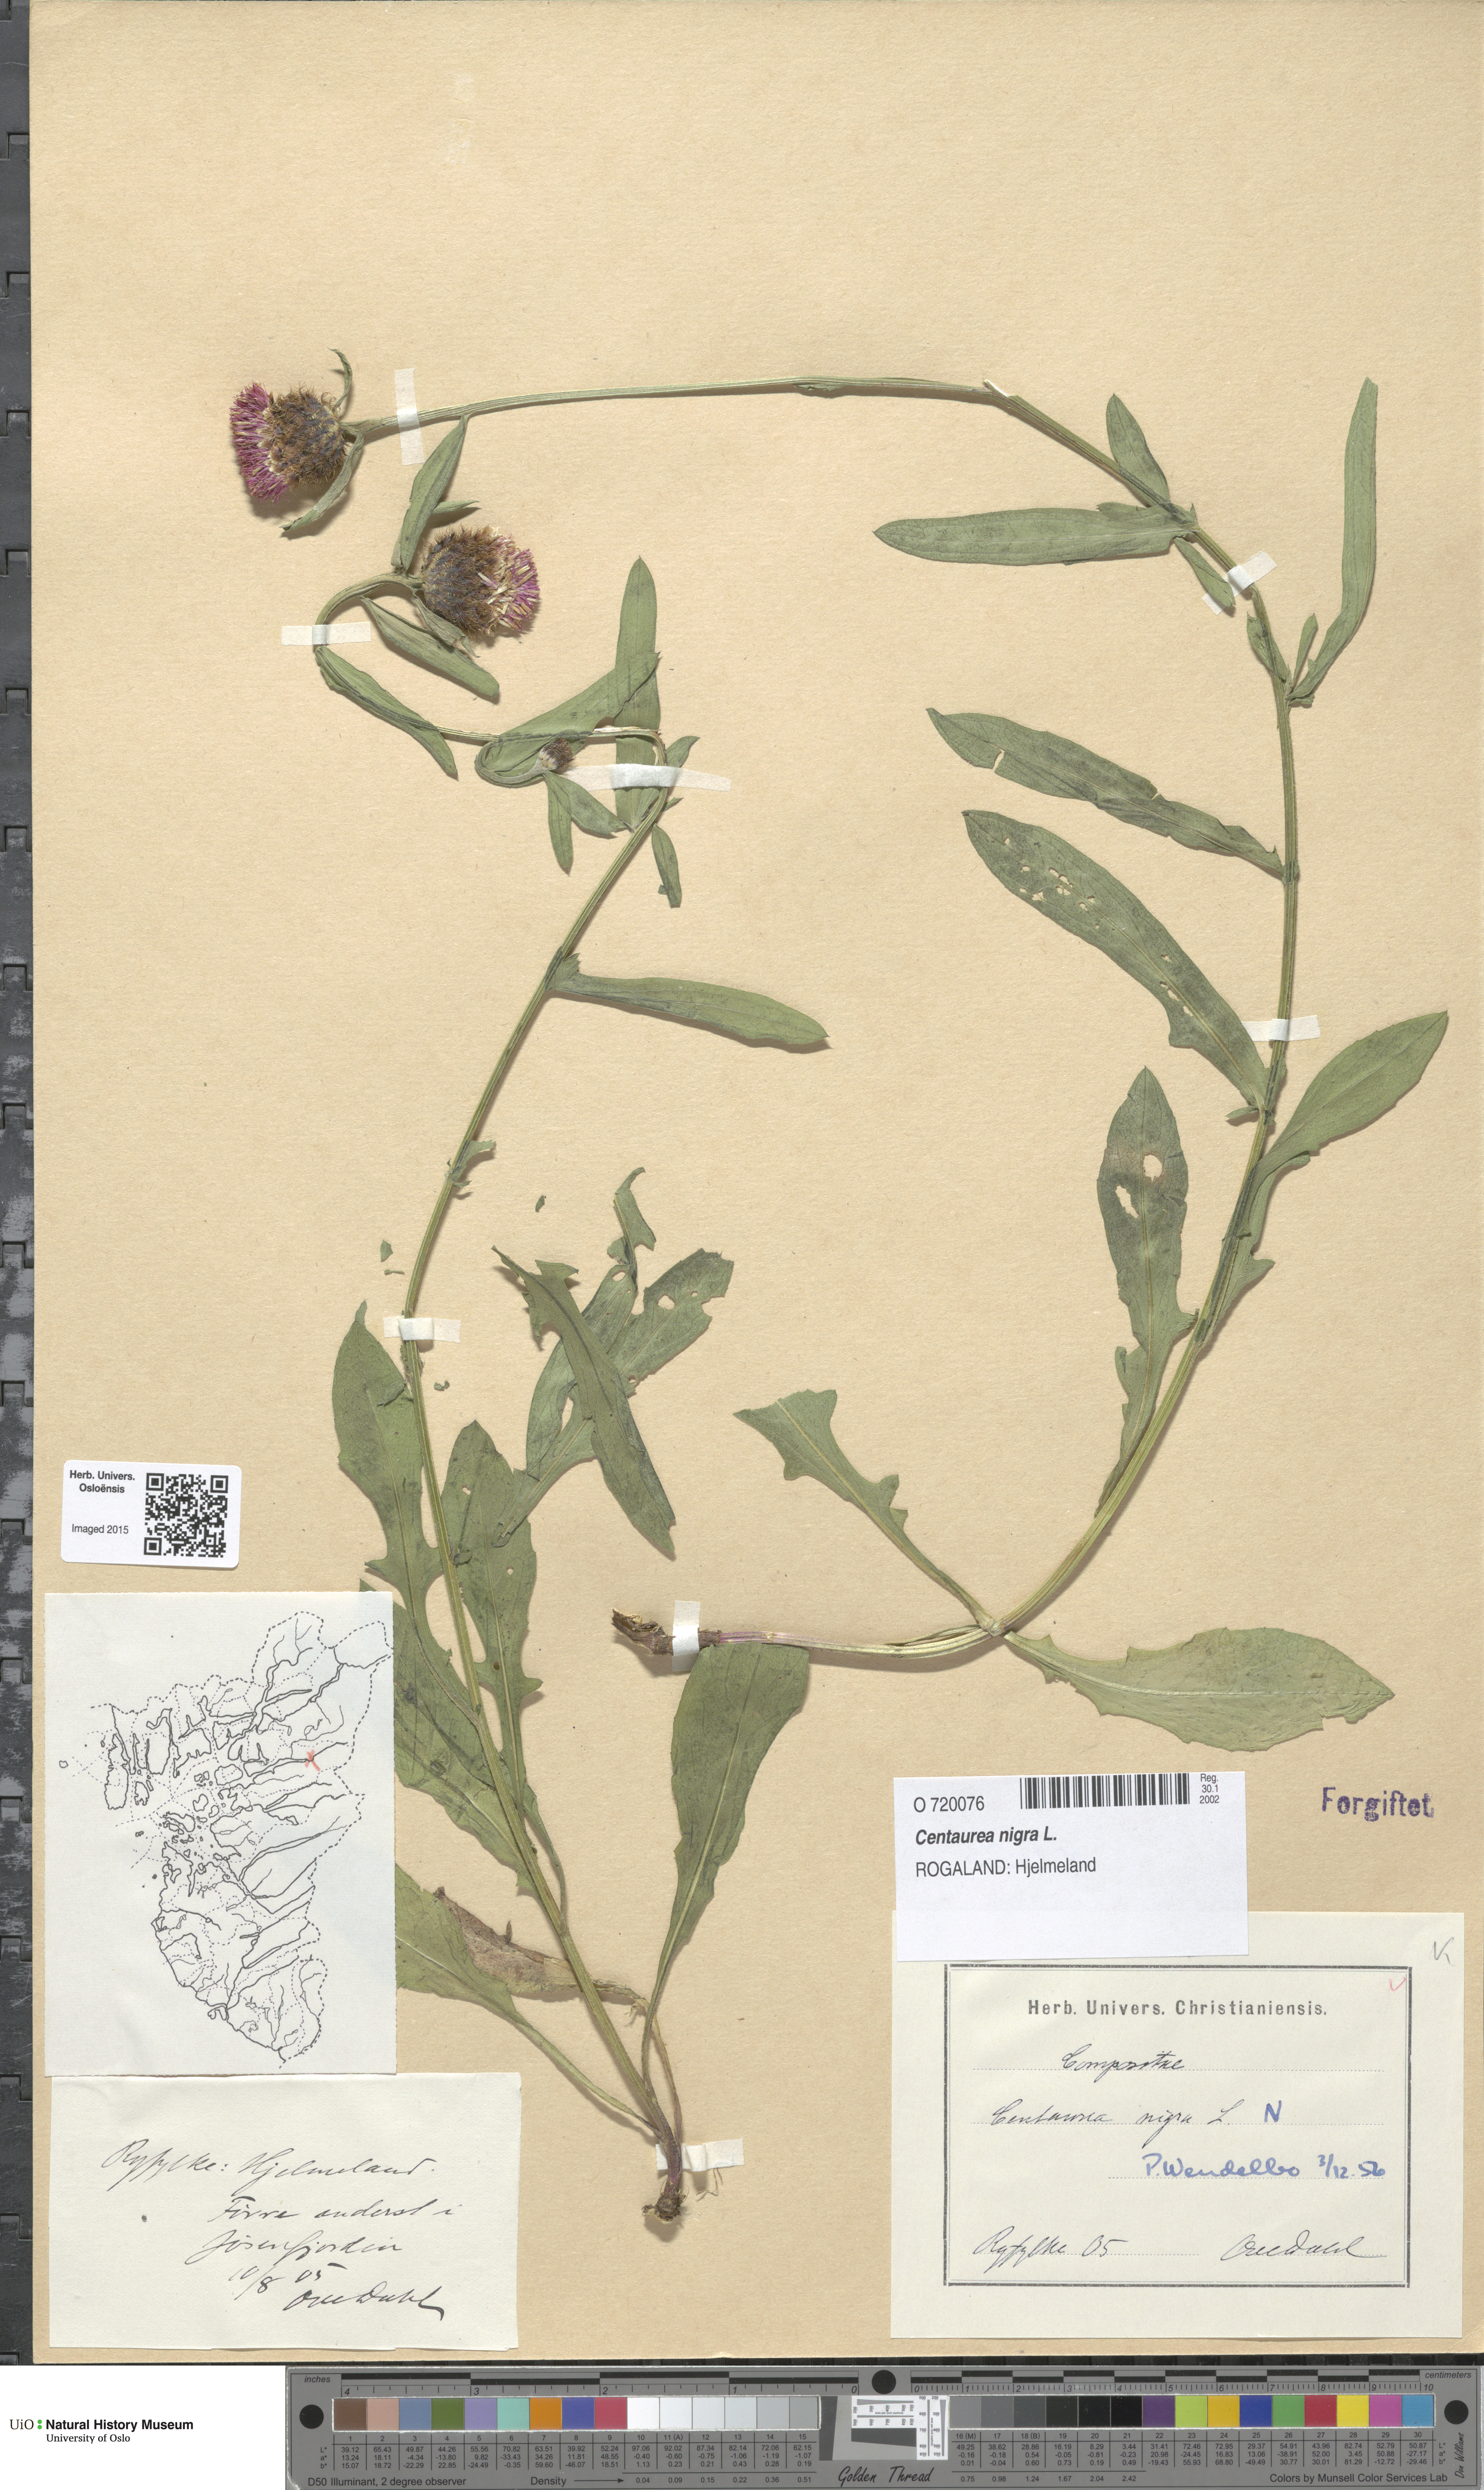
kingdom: Plantae
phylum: Tracheophyta
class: Magnoliopsida
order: Asterales
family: Asteraceae
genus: Centaurea
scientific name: Centaurea nigra
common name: Lesser knapweed
